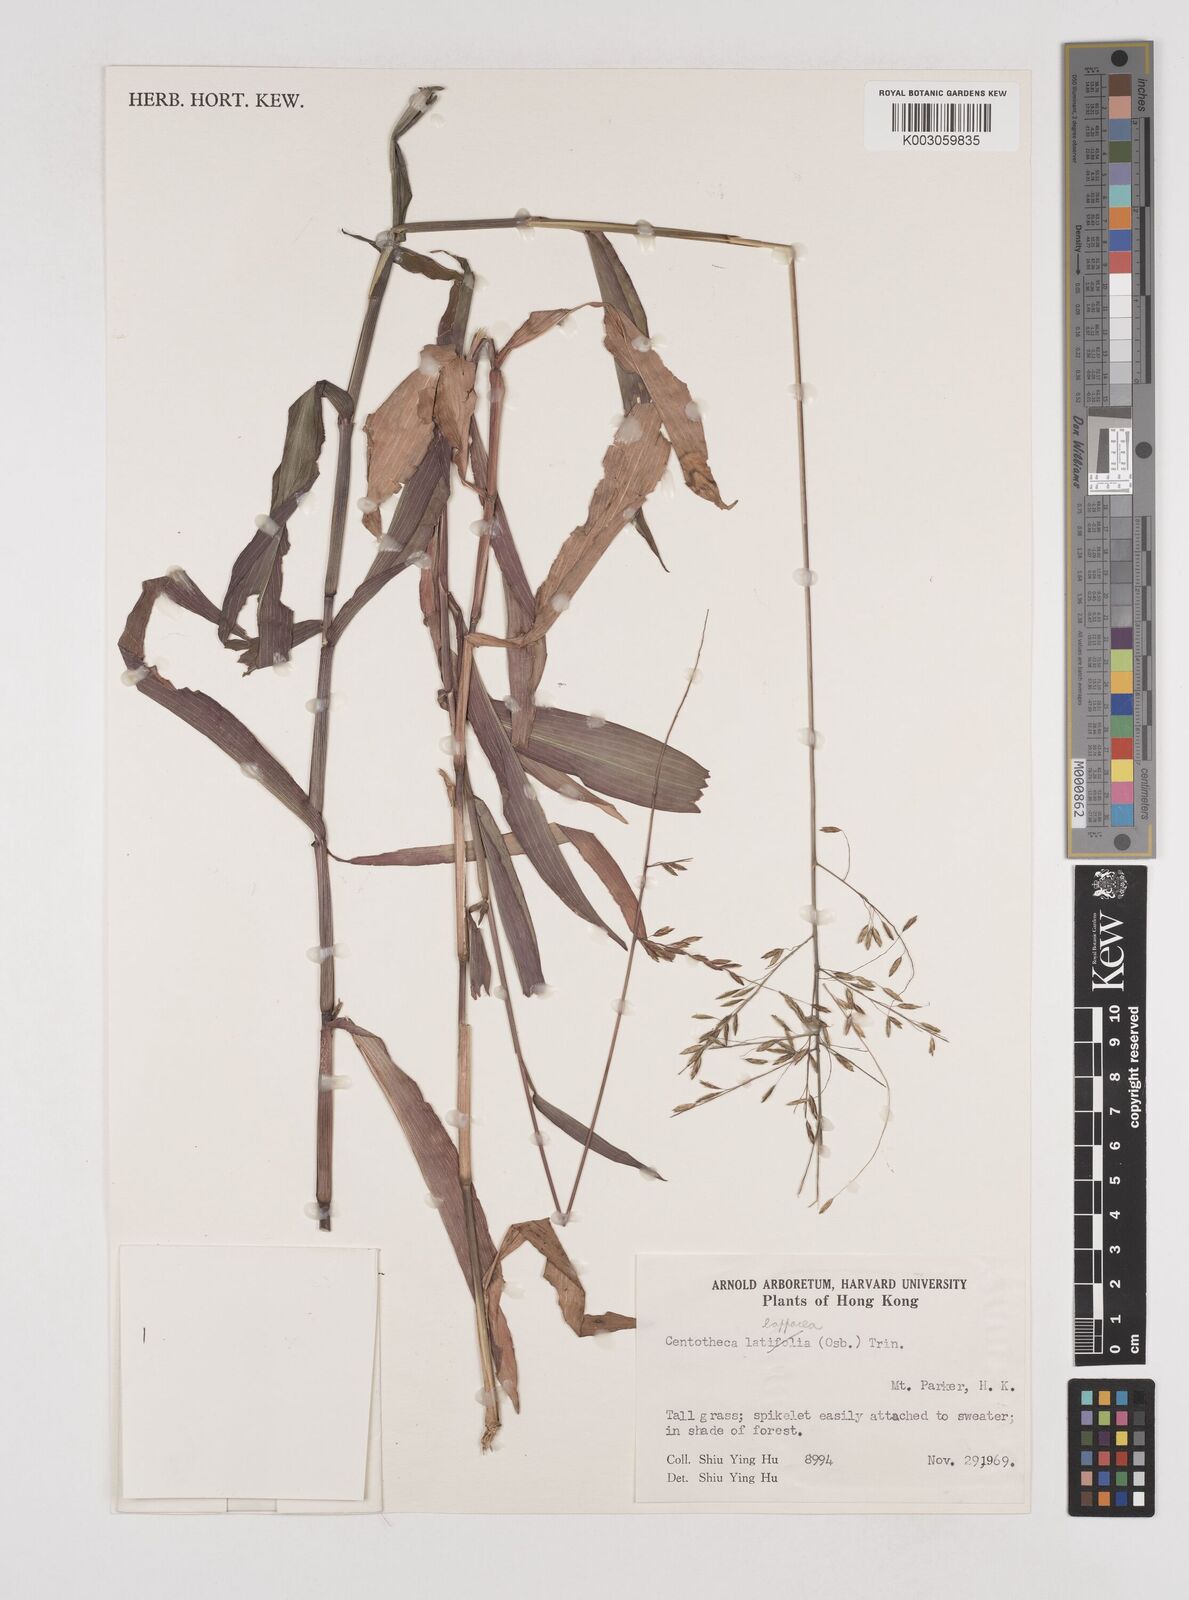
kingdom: Plantae
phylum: Tracheophyta
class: Liliopsida
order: Poales
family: Poaceae
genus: Centotheca
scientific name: Centotheca lappacea
